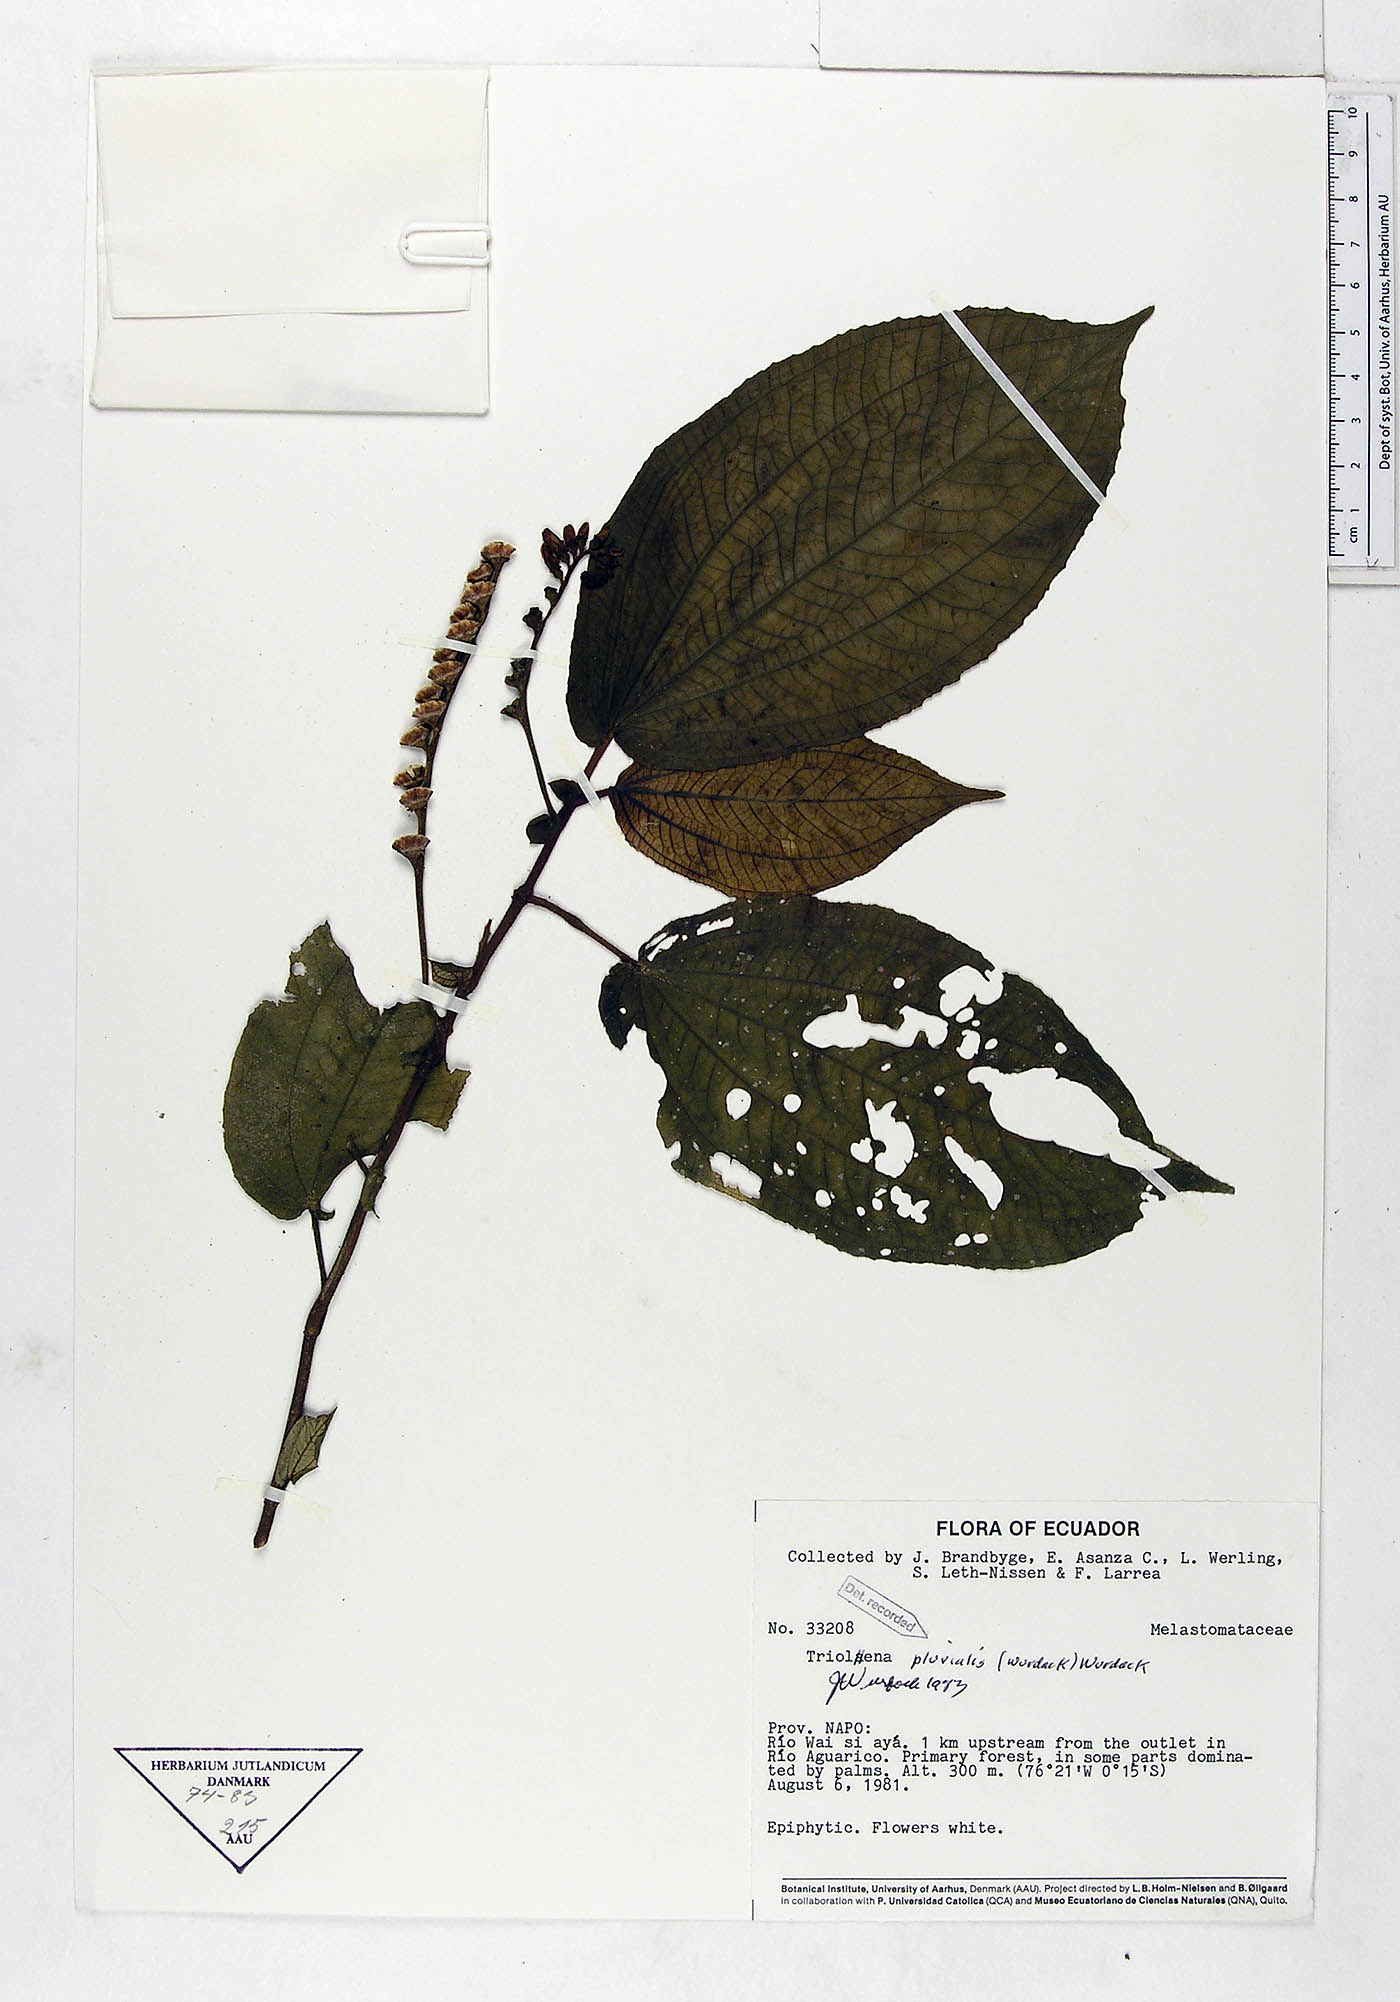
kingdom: Plantae
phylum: Tracheophyta
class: Magnoliopsida
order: Myrtales
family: Melastomataceae
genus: Triolena
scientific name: Triolena pluvialis
